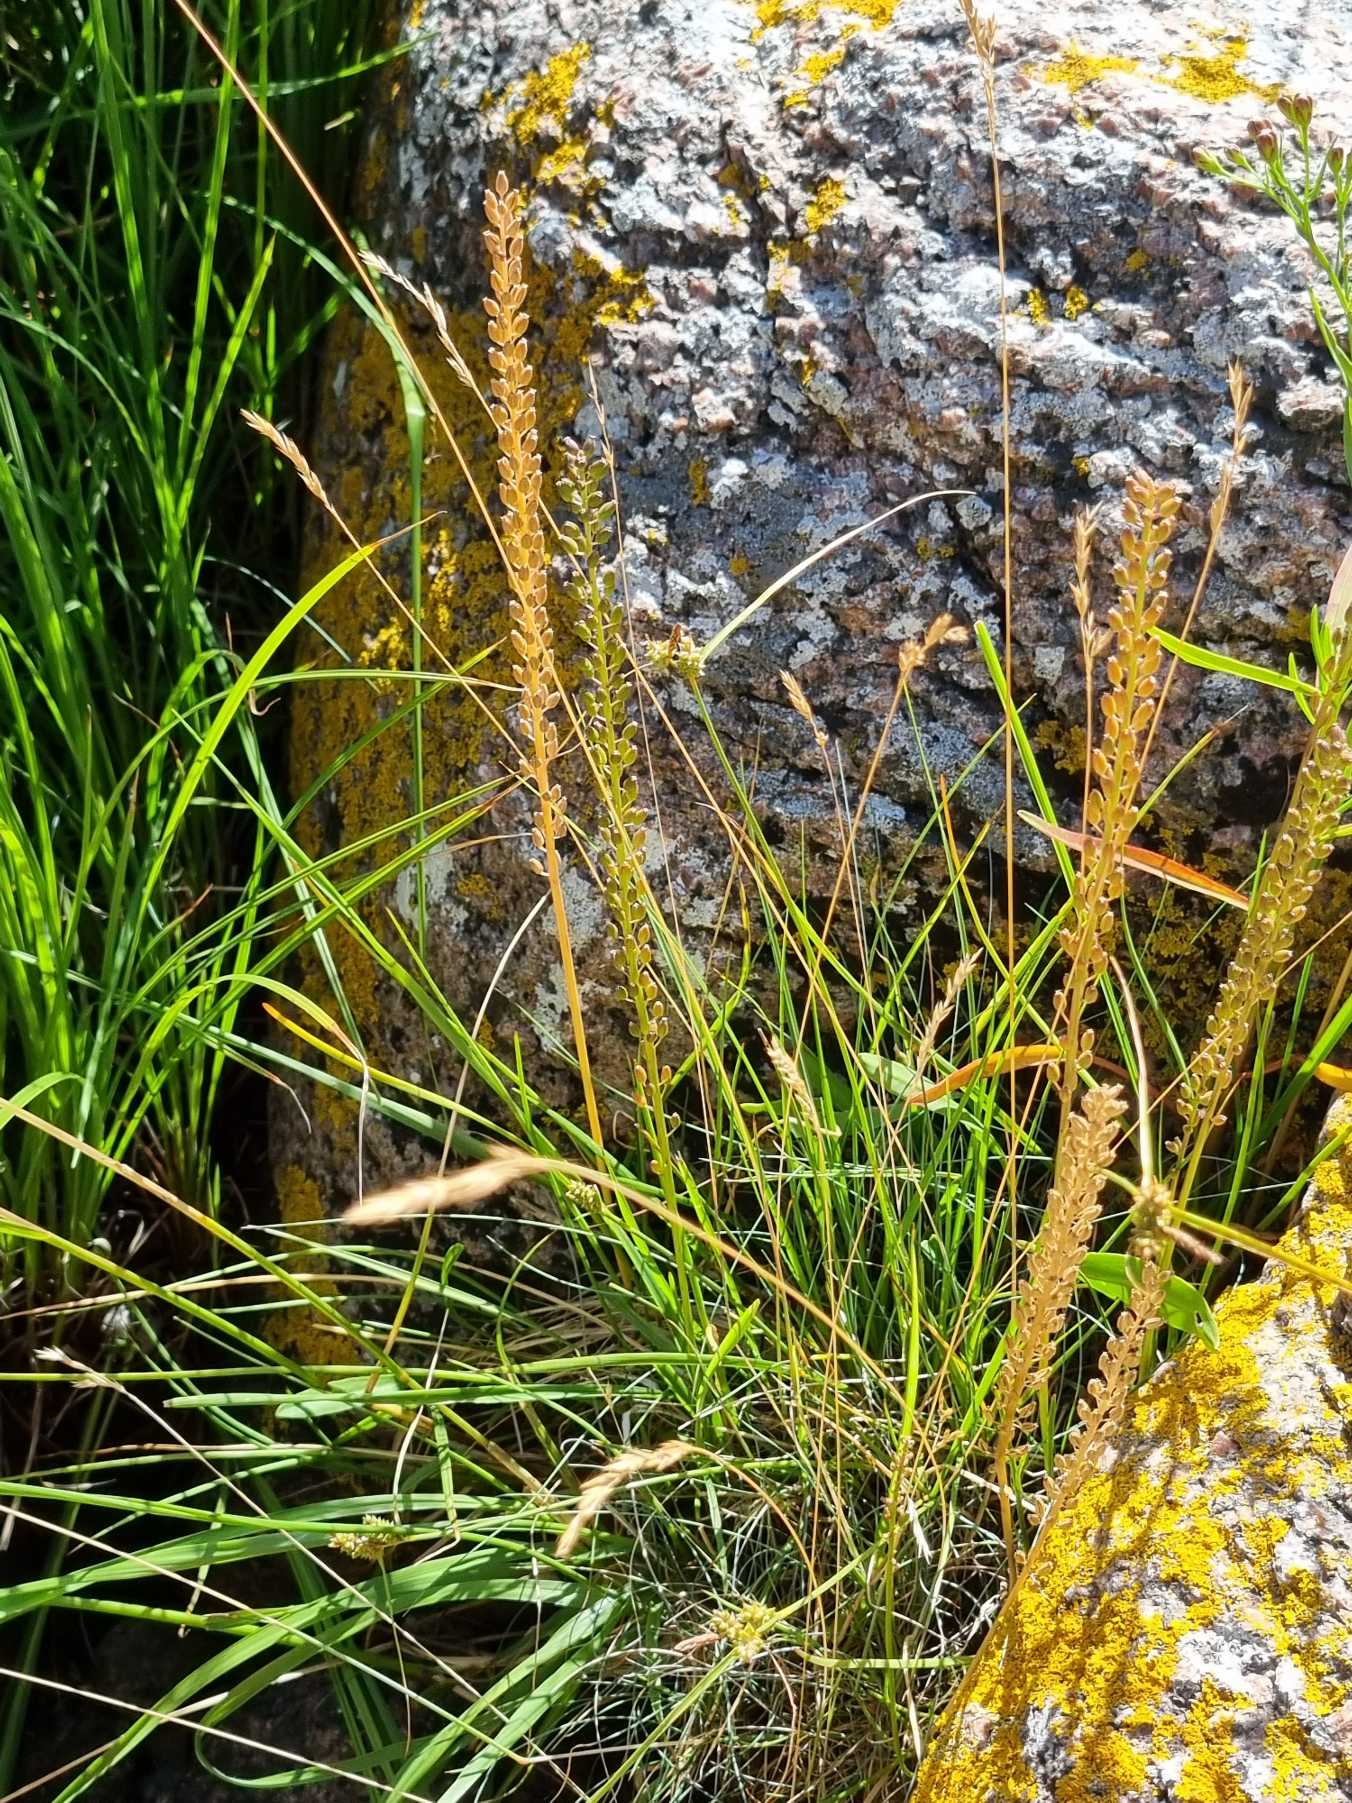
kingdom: Plantae
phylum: Tracheophyta
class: Liliopsida
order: Alismatales
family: Juncaginaceae
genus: Triglochin
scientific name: Triglochin maritima
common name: Strand-trehage
